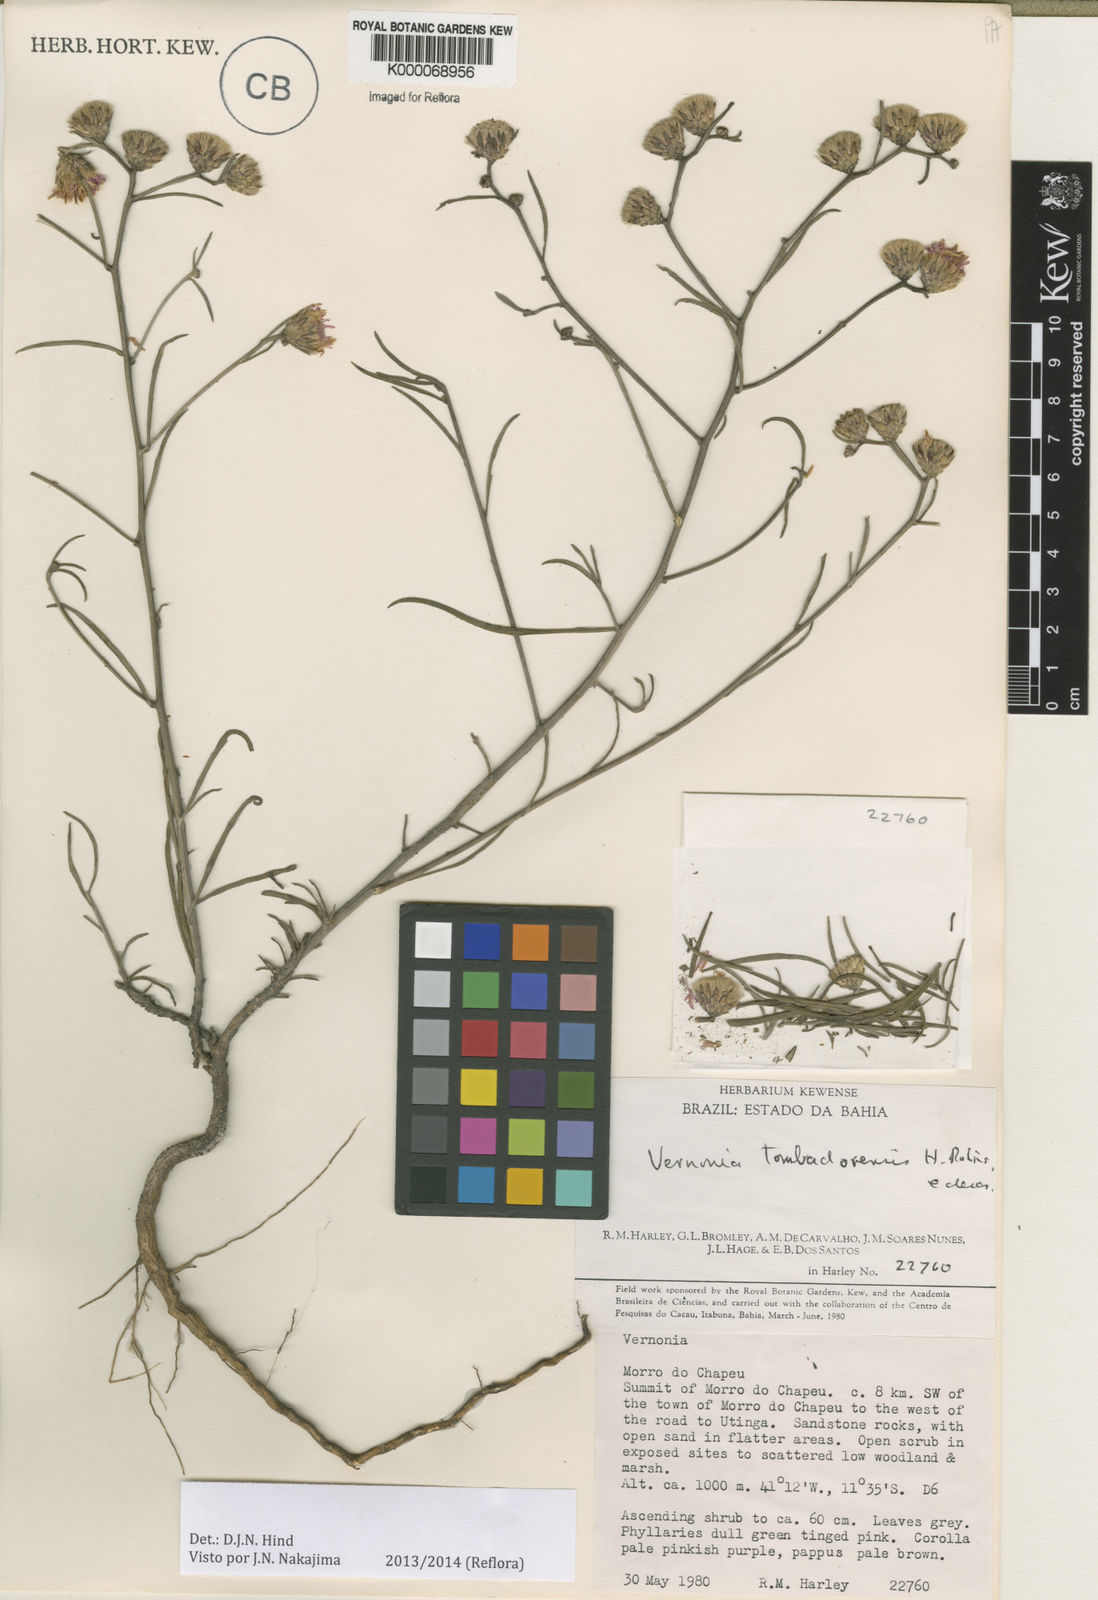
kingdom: Plantae
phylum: Tracheophyta
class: Magnoliopsida
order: Asterales
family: Asteraceae
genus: Lepidaploa
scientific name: Lepidaploa tombadorensis
